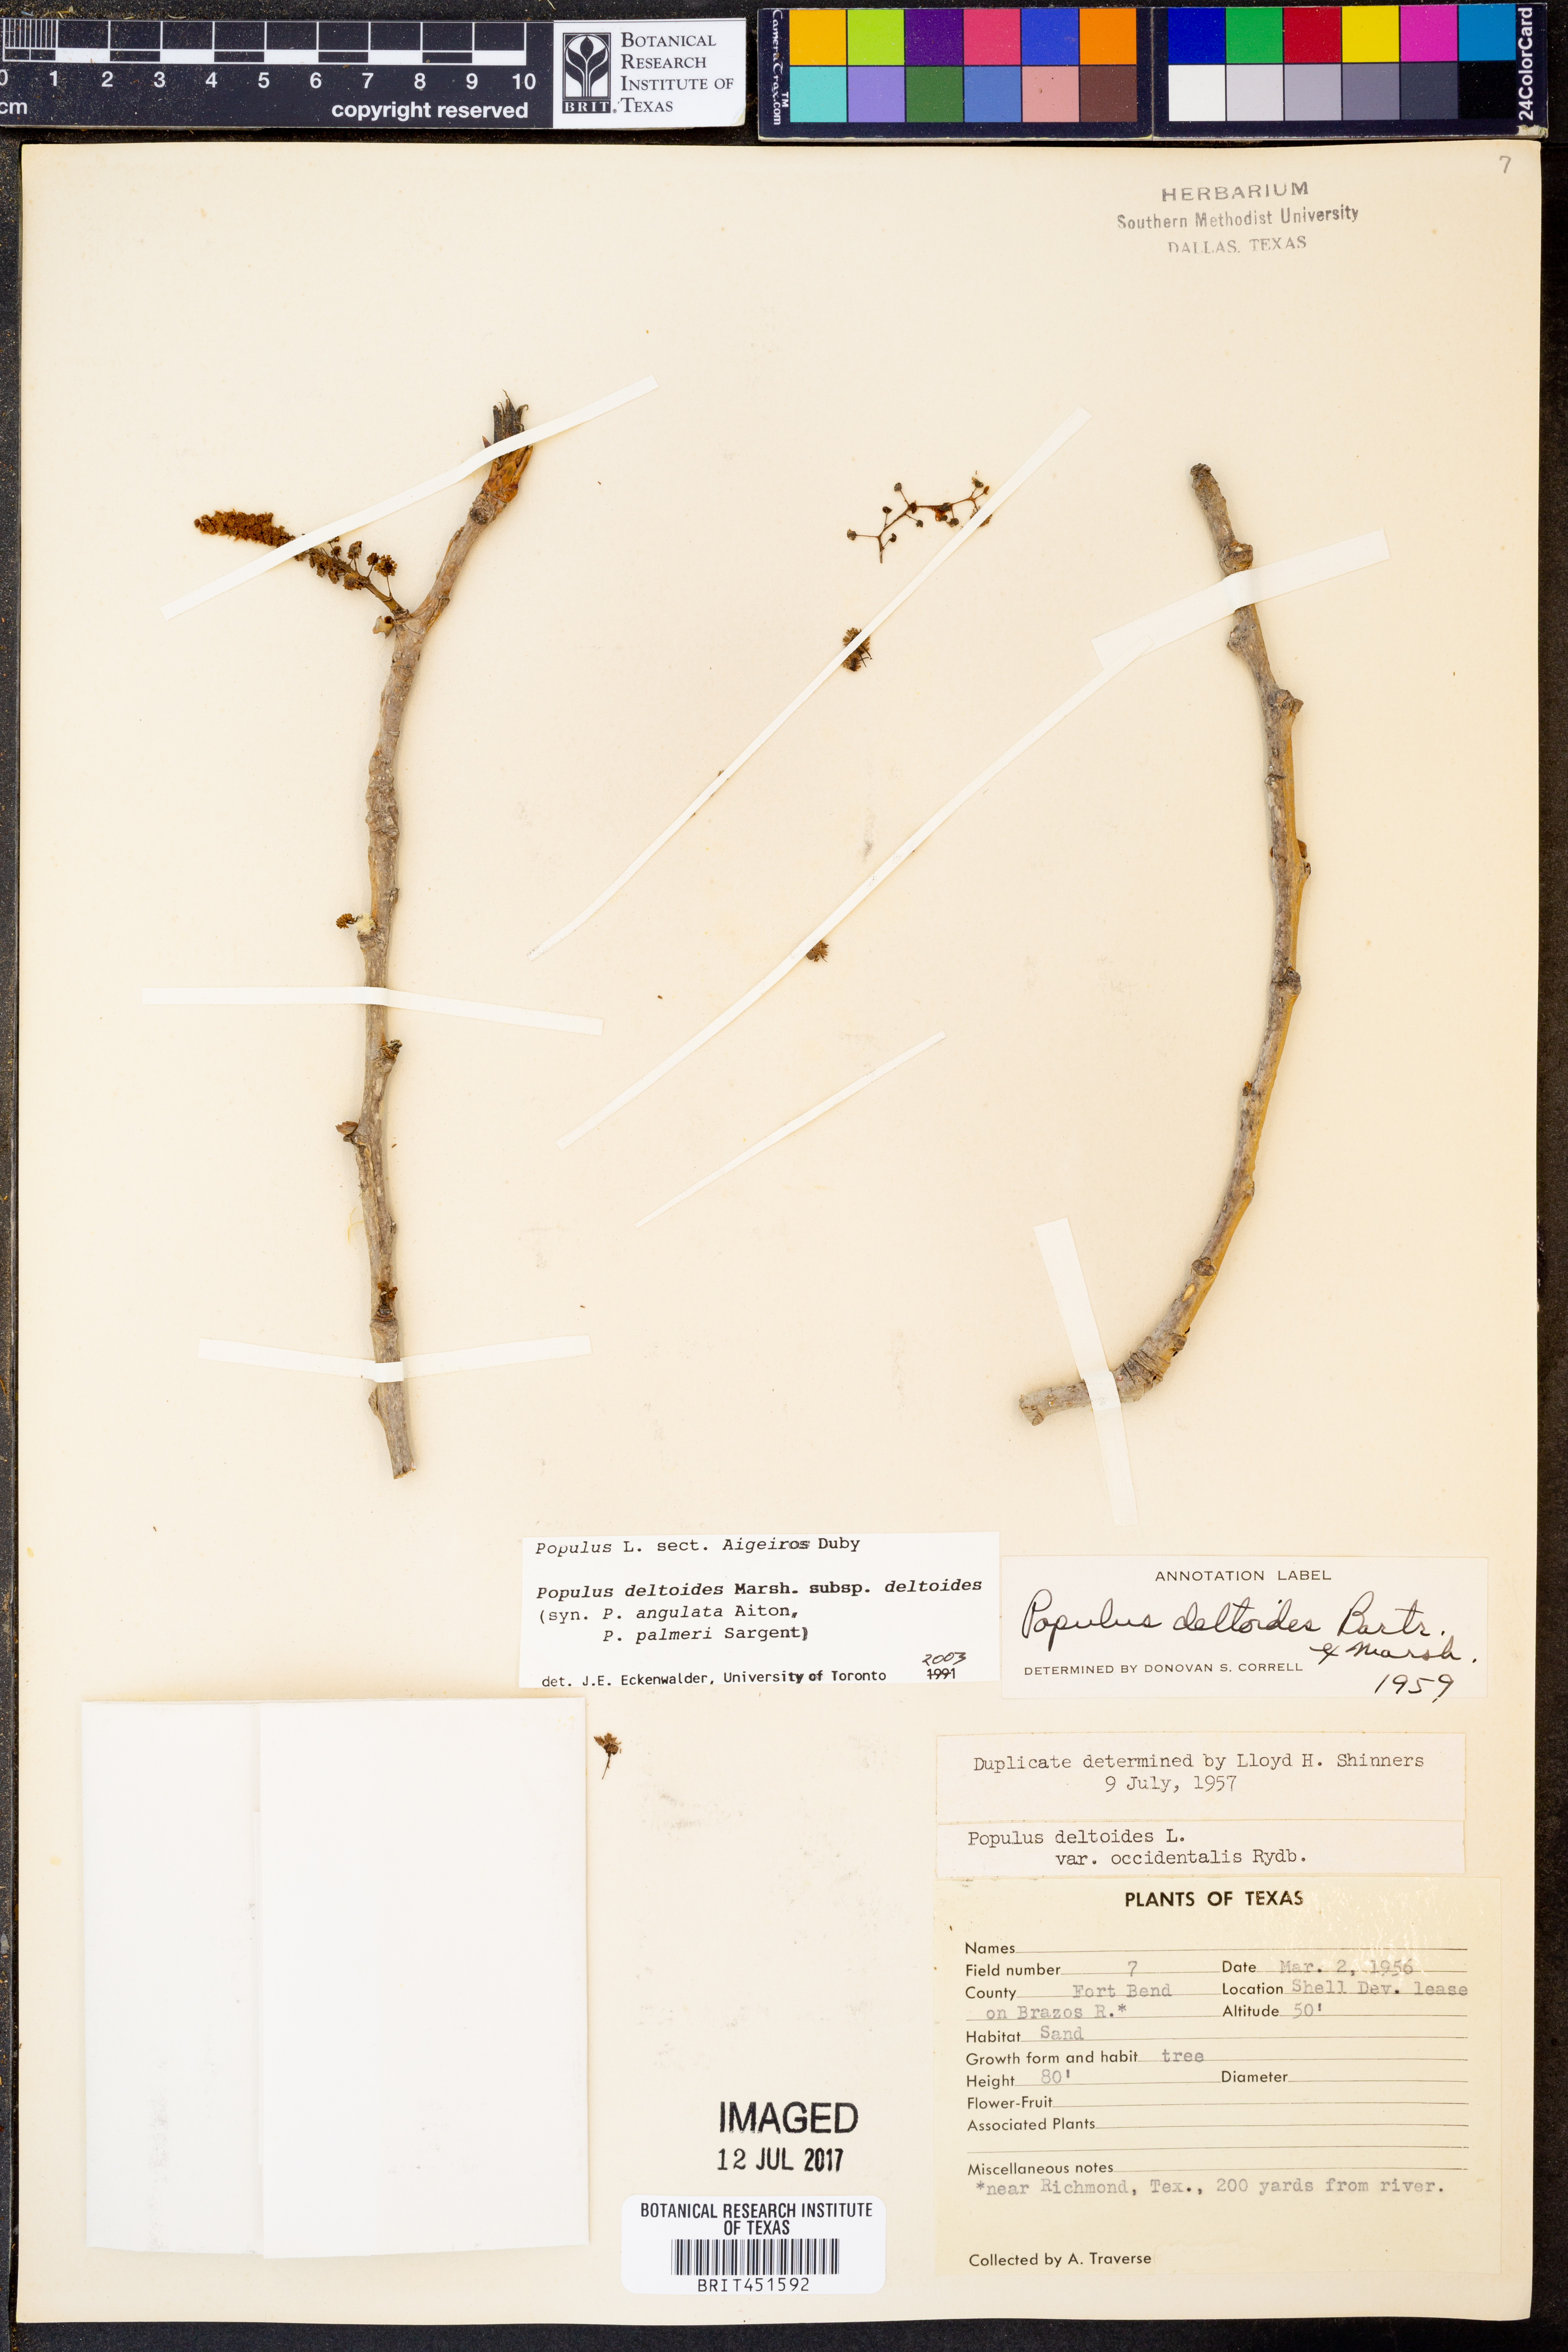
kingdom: Plantae
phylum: Tracheophyta
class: Magnoliopsida
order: Malpighiales
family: Salicaceae
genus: Populus
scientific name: Populus deltoides
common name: Eastern cottonwood
